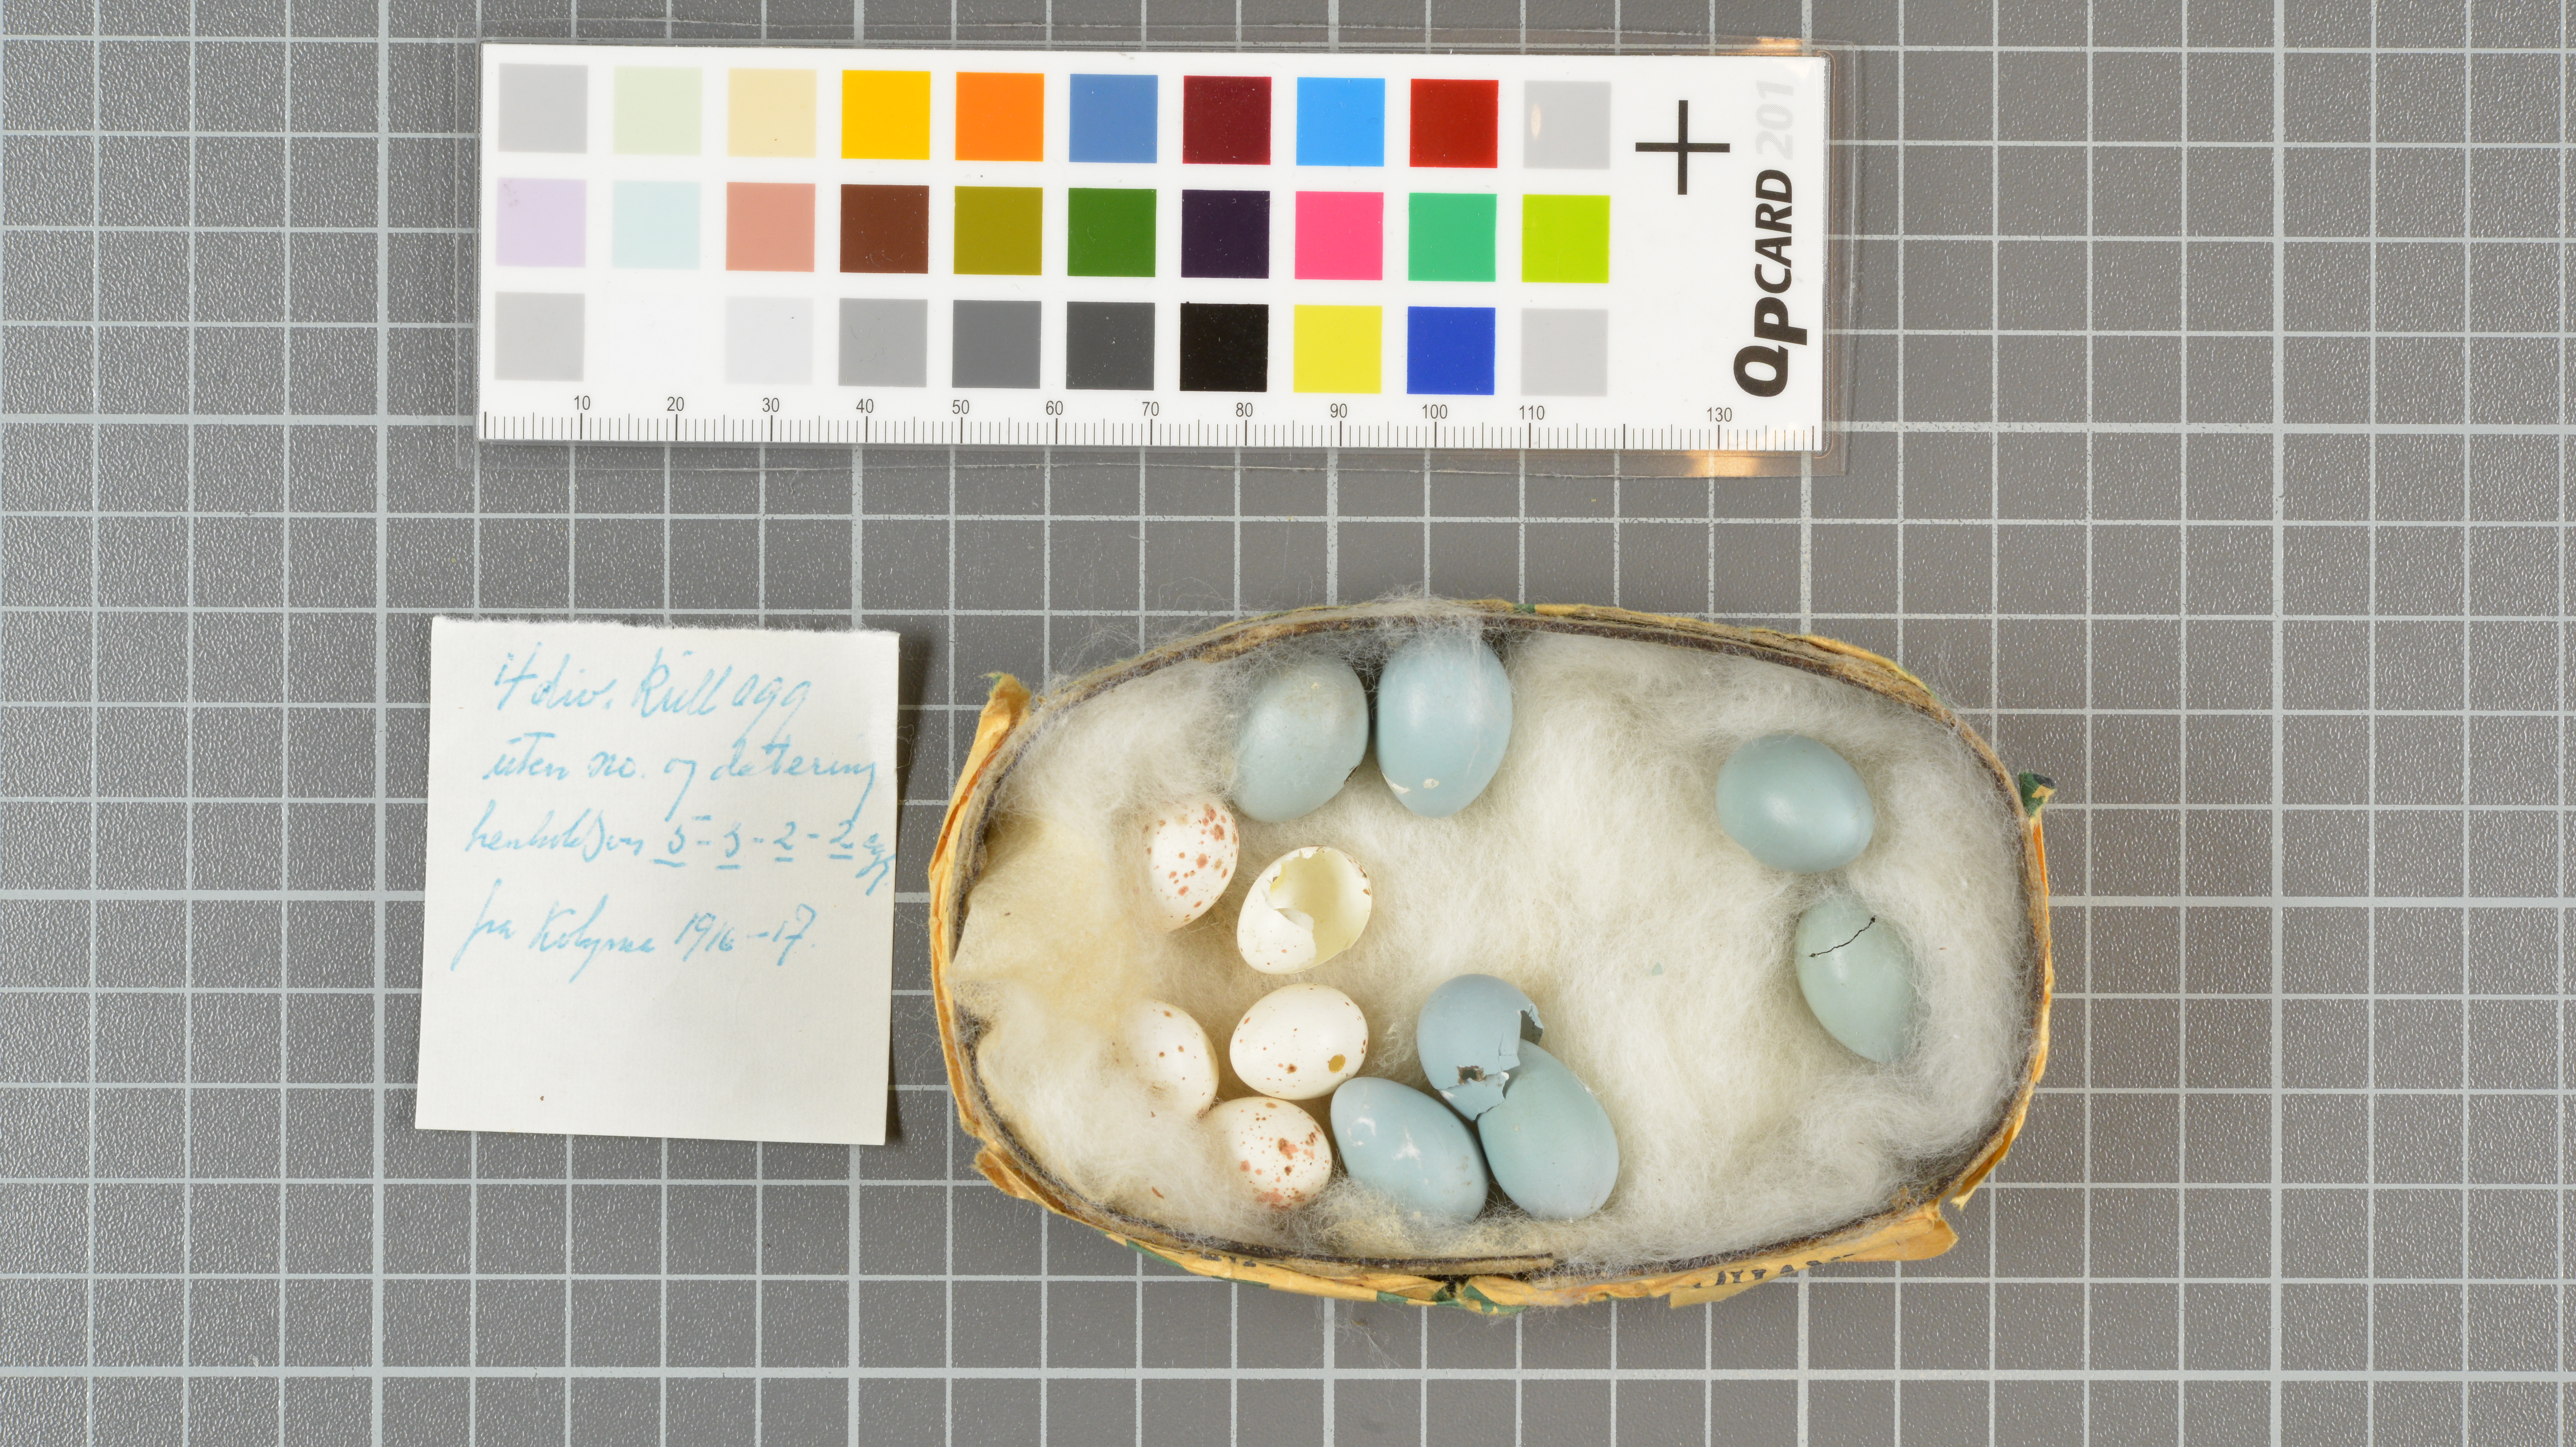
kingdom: Animalia
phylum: Chordata
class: Aves
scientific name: Aves
